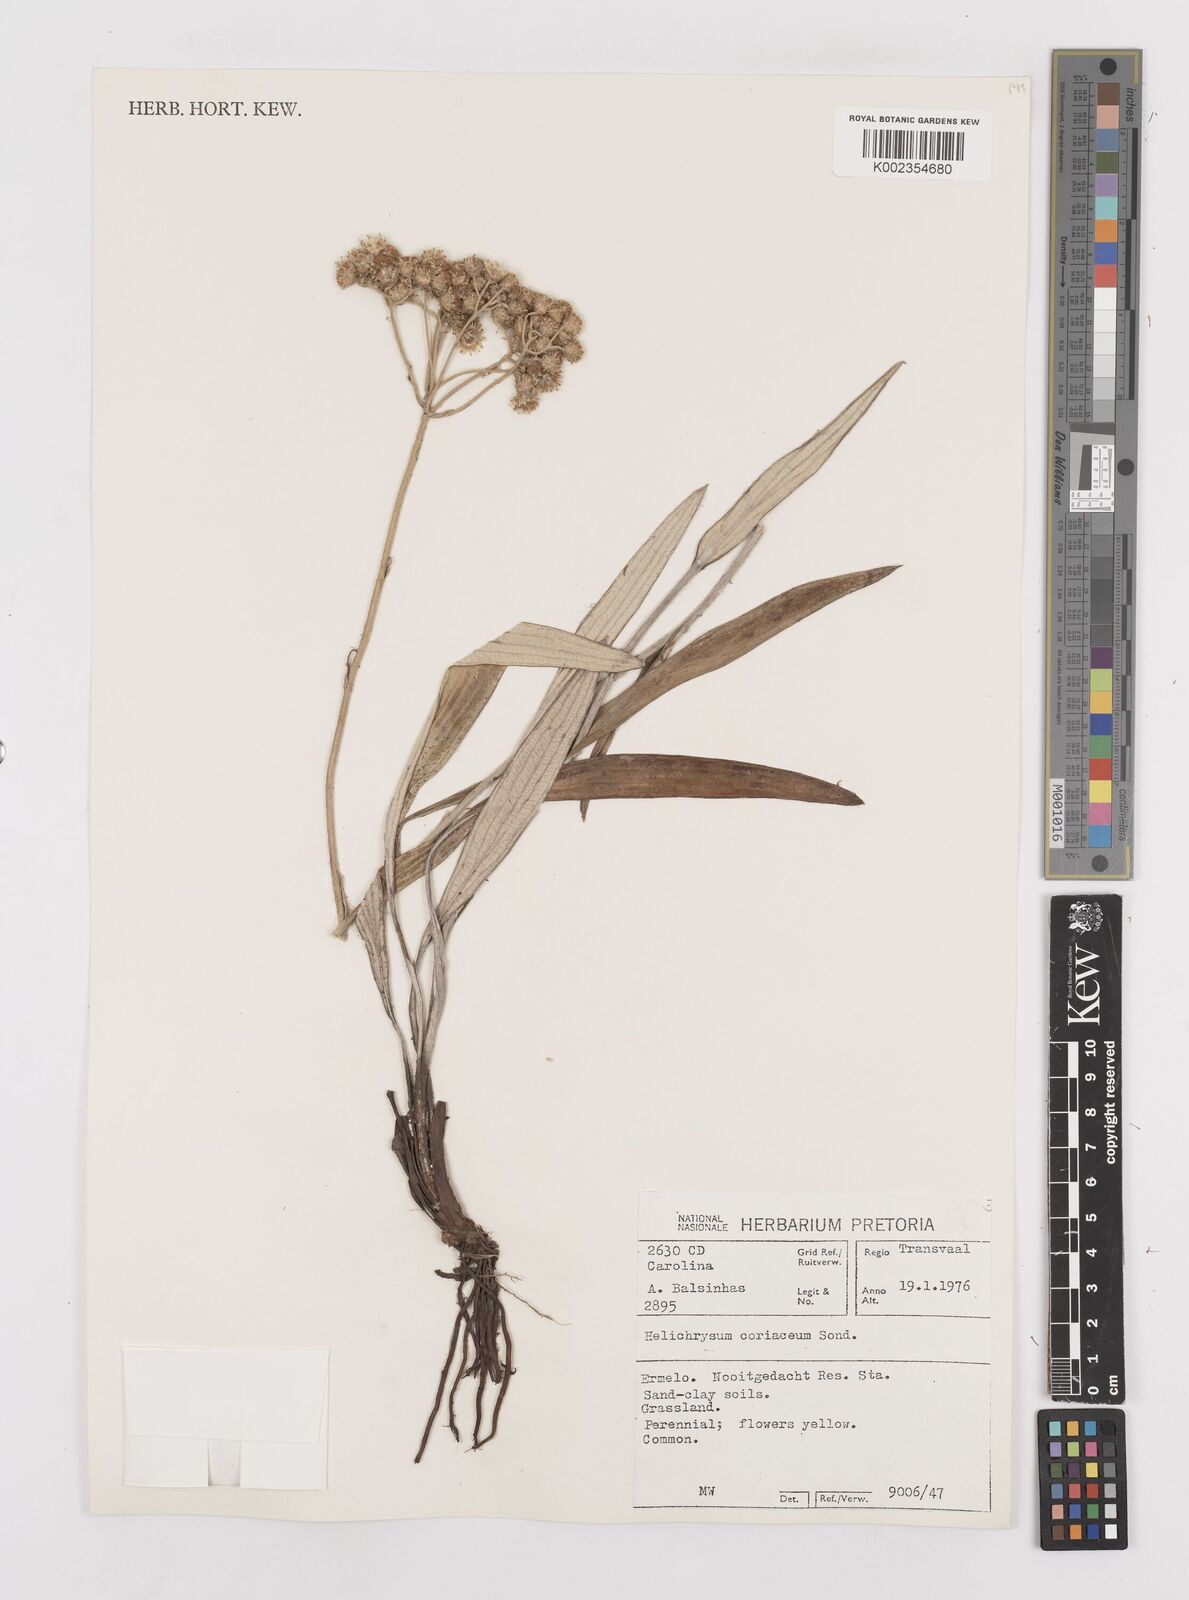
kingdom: Plantae
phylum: Tracheophyta
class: Magnoliopsida
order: Asterales
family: Asteraceae
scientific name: Asteraceae
